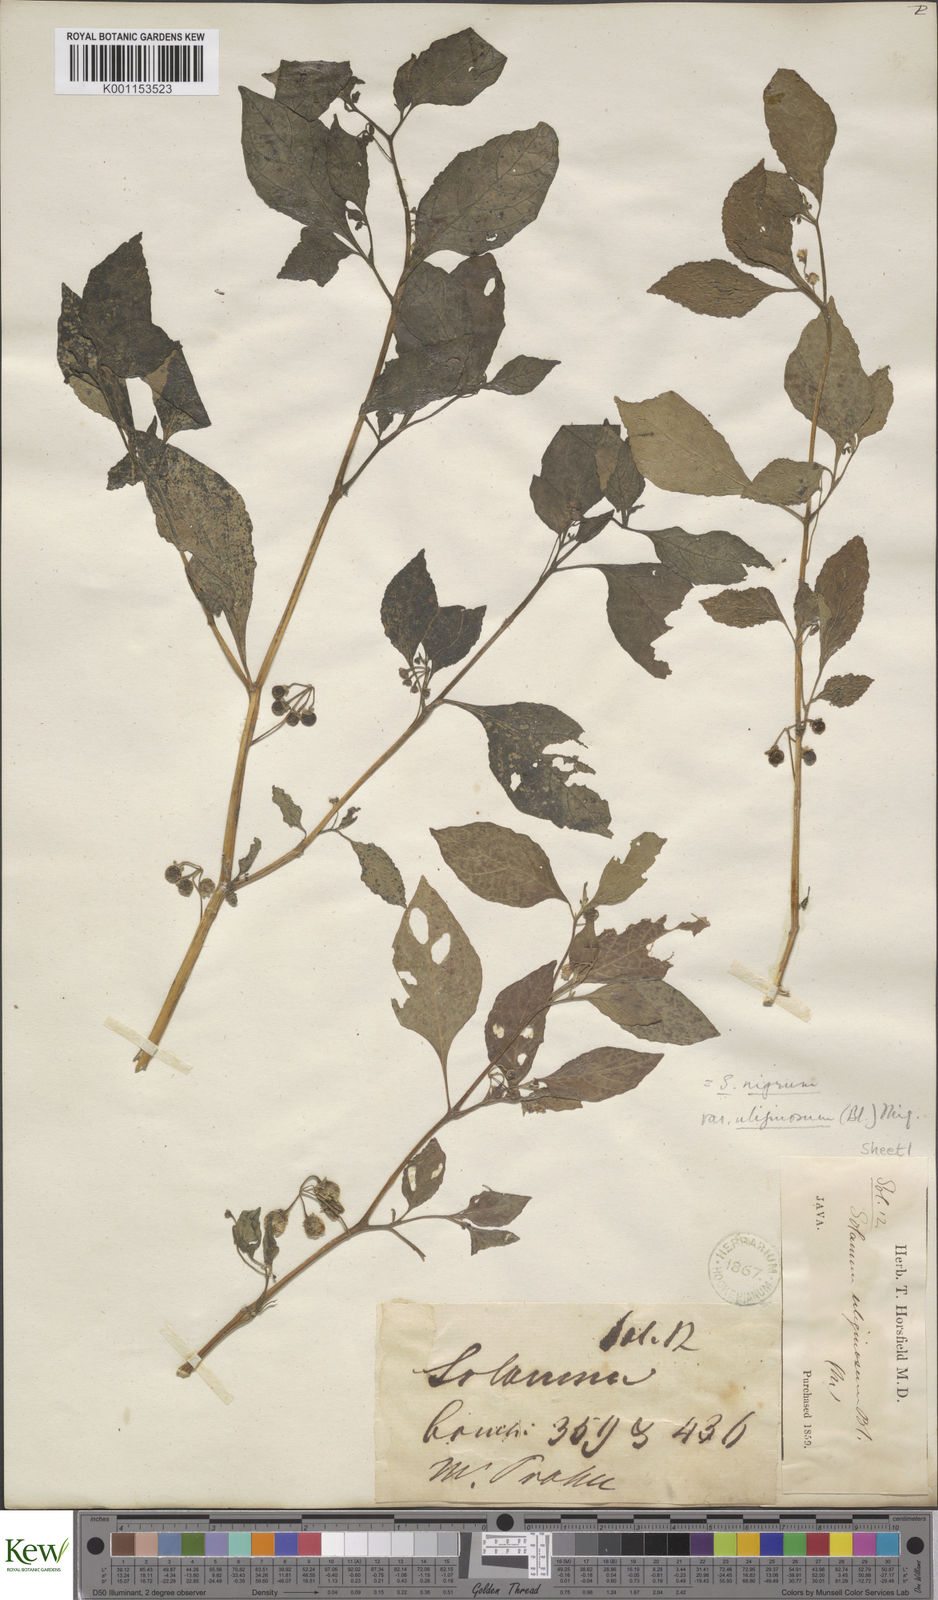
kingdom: Plantae
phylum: Tracheophyta
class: Magnoliopsida
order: Solanales
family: Solanaceae
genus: Solanum
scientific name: Solanum nigrum
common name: Black nightshade
